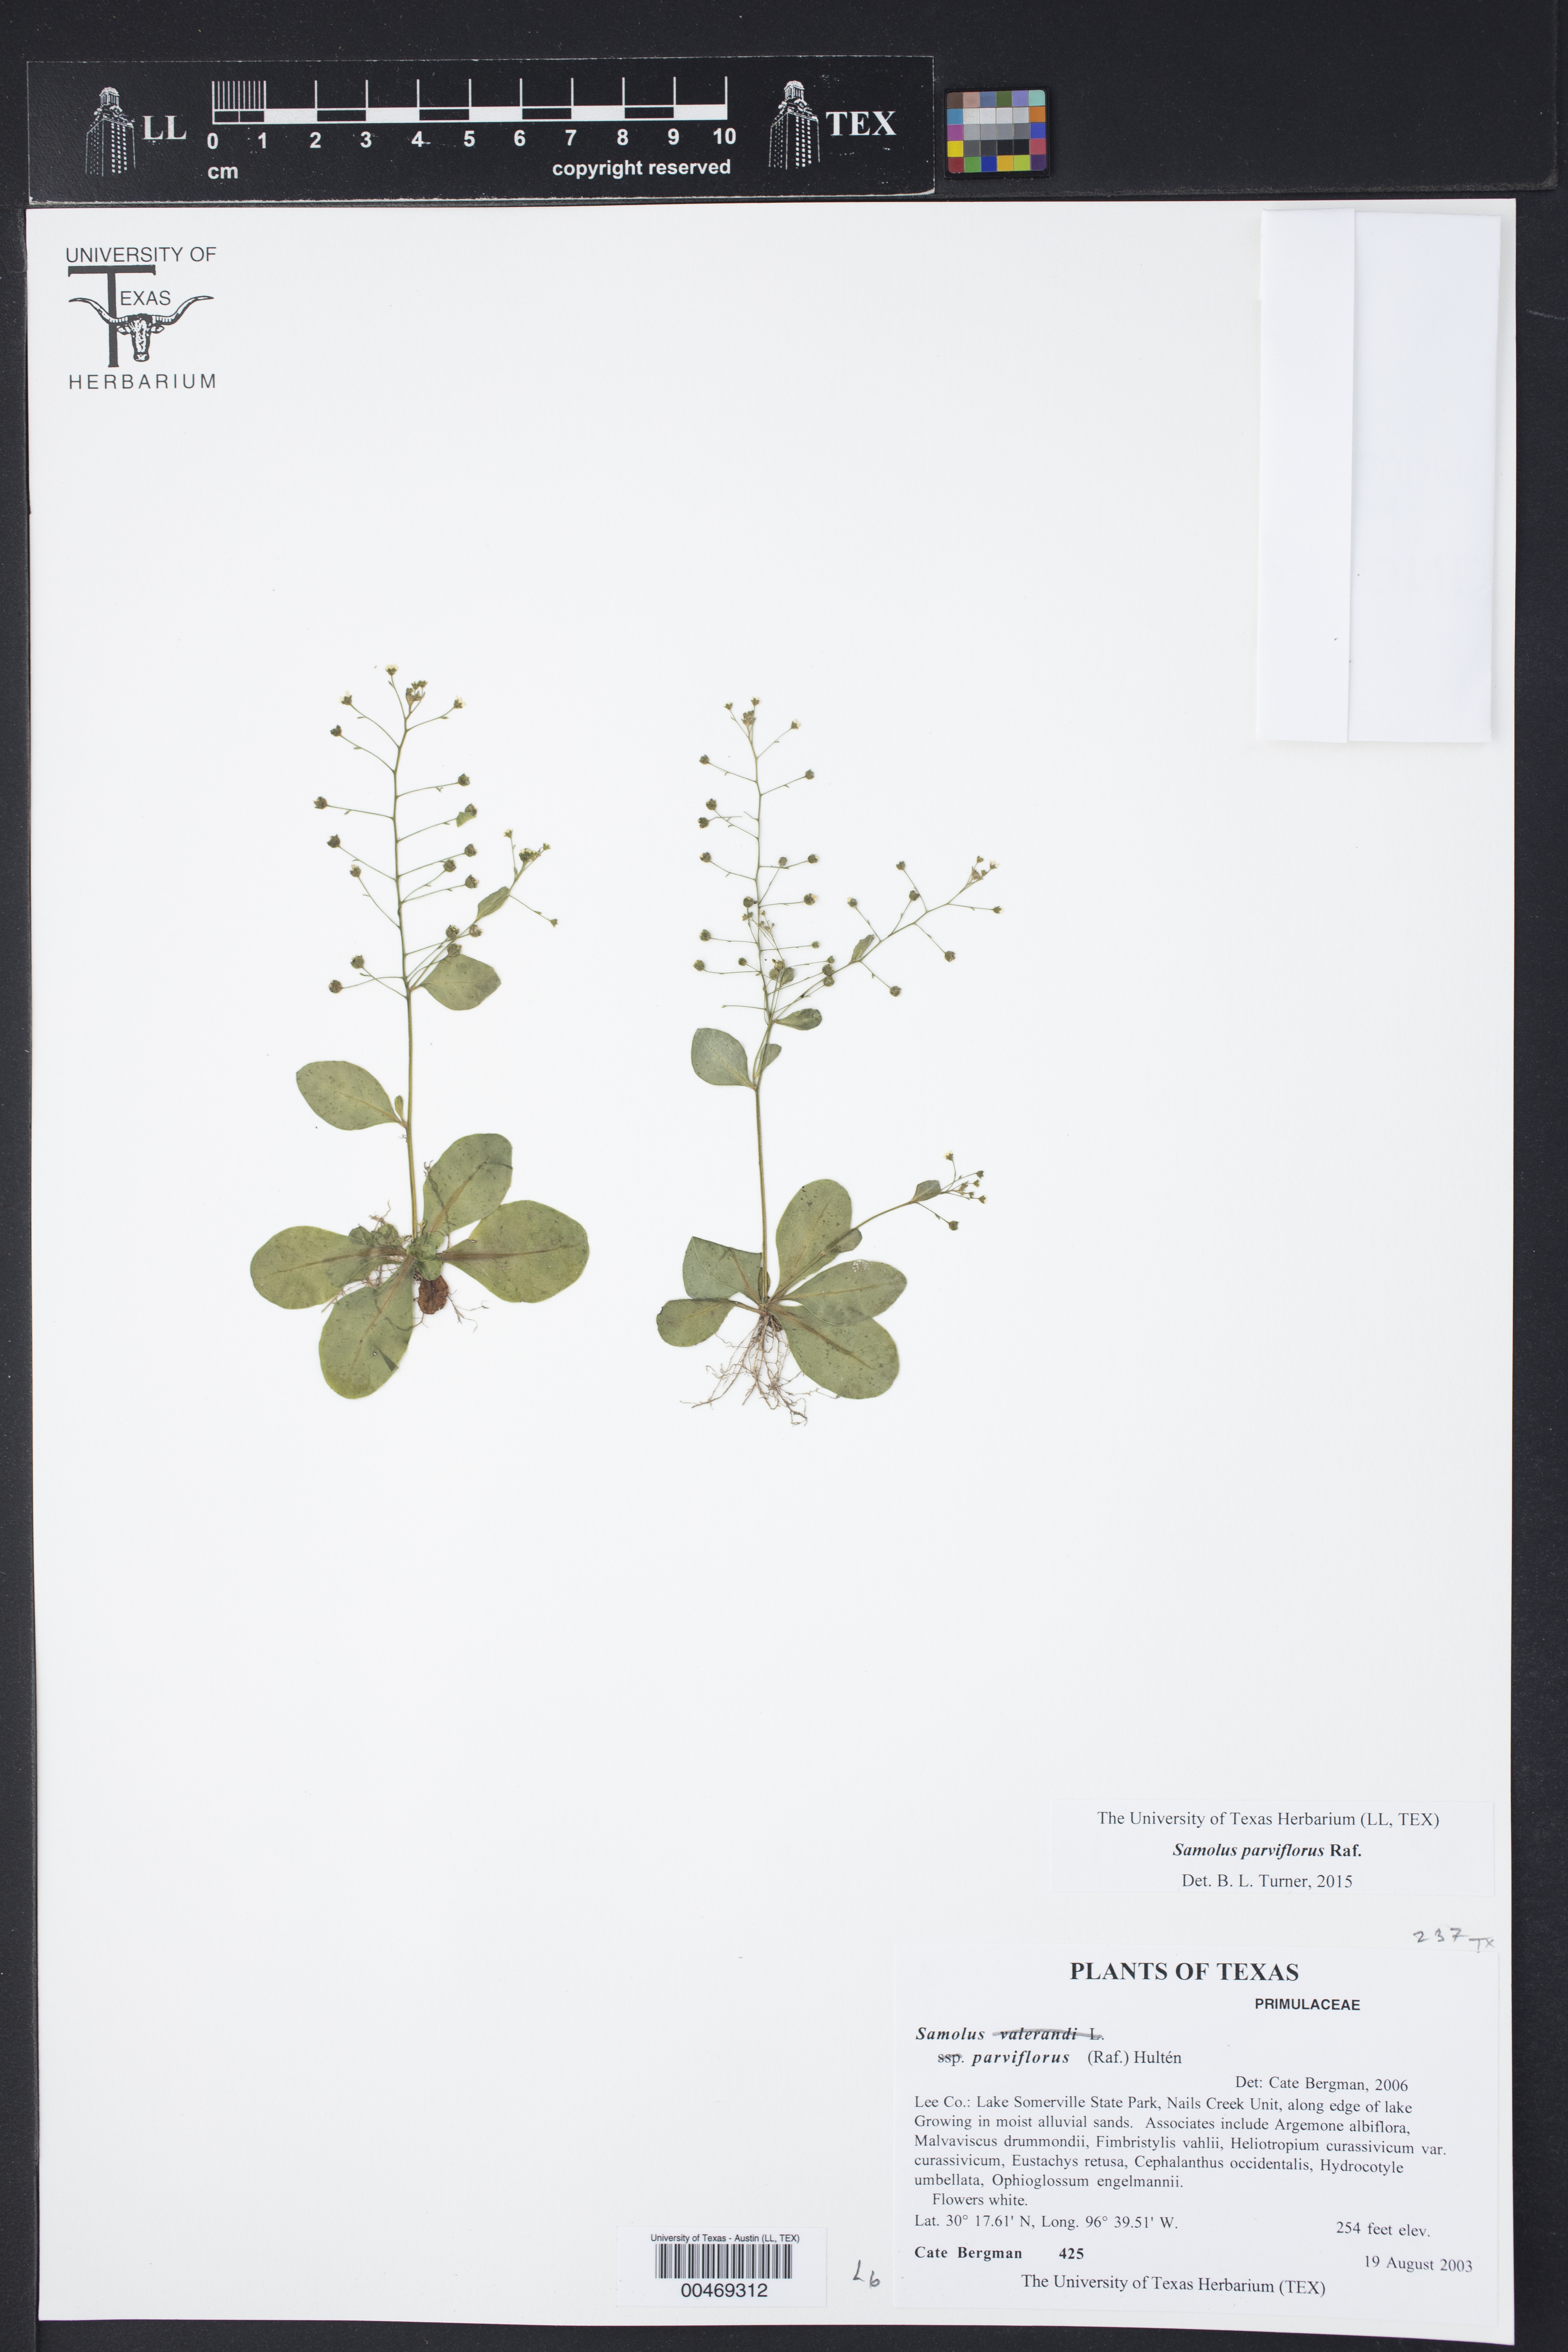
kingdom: Plantae
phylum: Tracheophyta
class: Magnoliopsida
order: Ericales
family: Primulaceae
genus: Samolus
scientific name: Samolus parviflorus
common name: False water pimpernel
